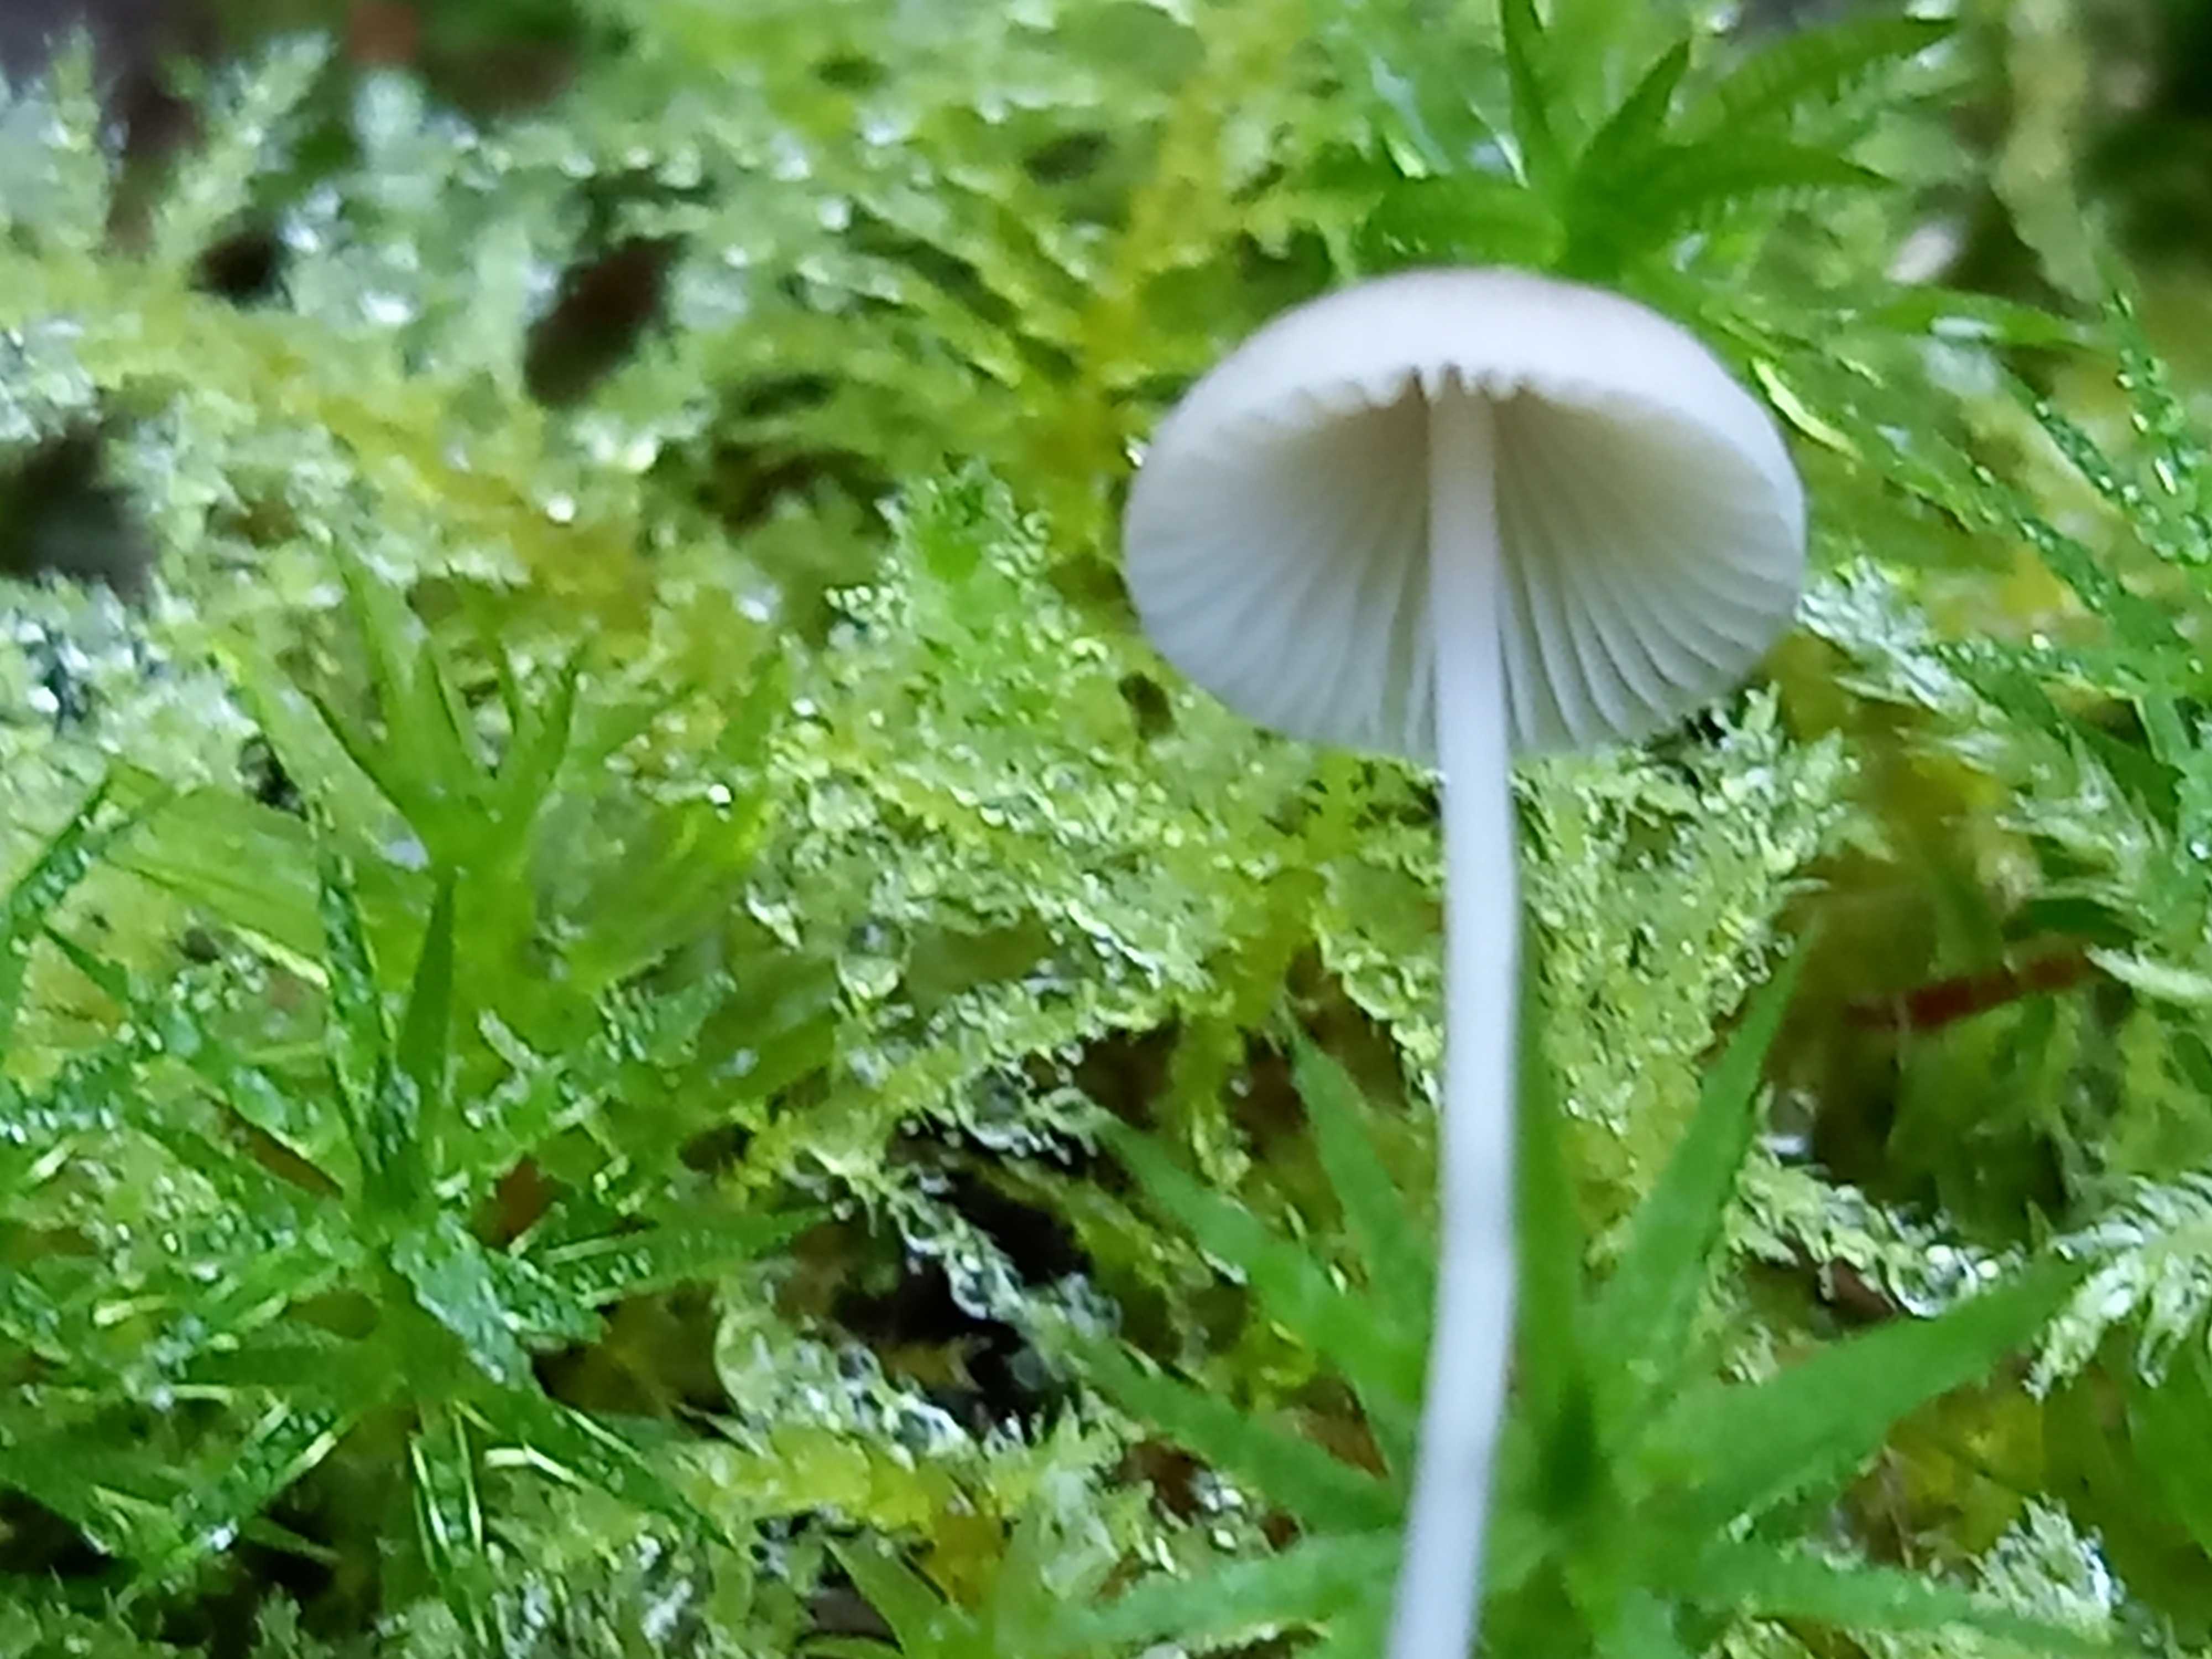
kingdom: Fungi
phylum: Basidiomycota
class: Agaricomycetes
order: Agaricales
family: Mycenaceae
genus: Mycena
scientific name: Mycena vitilis
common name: blankstokket huesvamp
